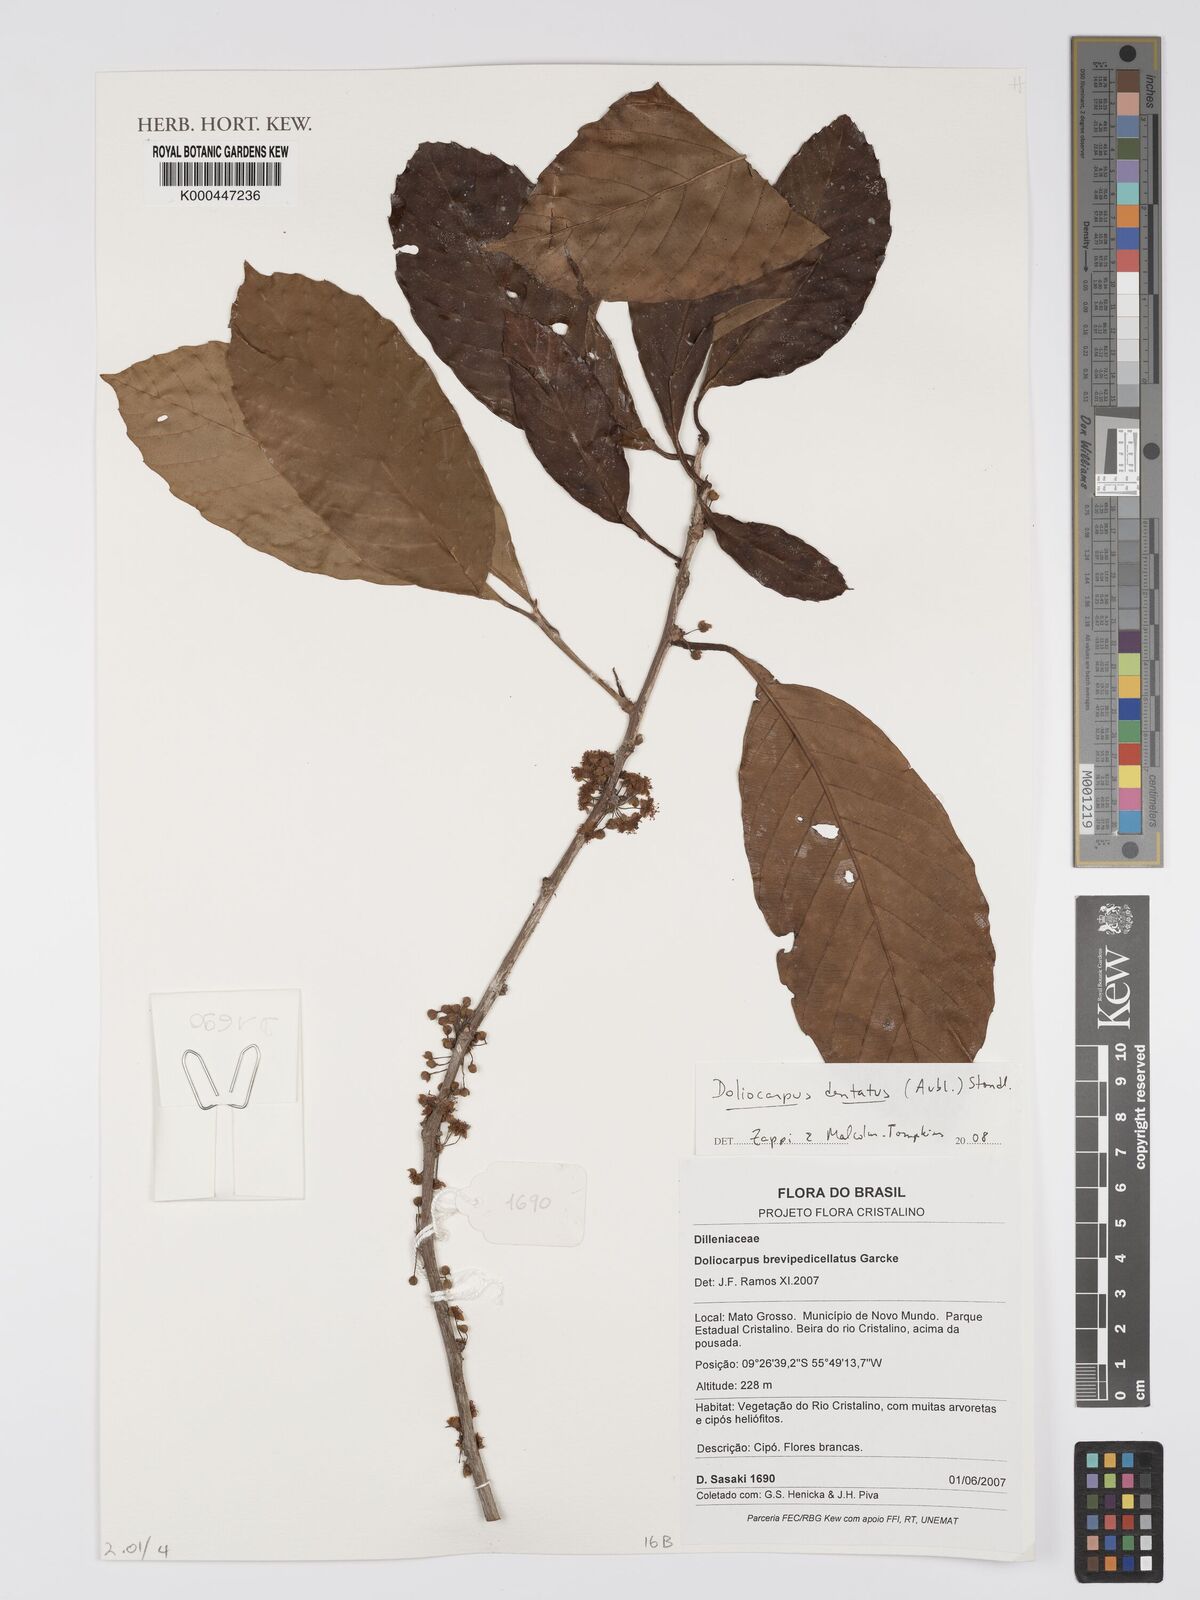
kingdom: Plantae
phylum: Tracheophyta
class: Magnoliopsida
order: Dilleniales
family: Dilleniaceae
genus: Doliocarpus
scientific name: Doliocarpus dentatus
